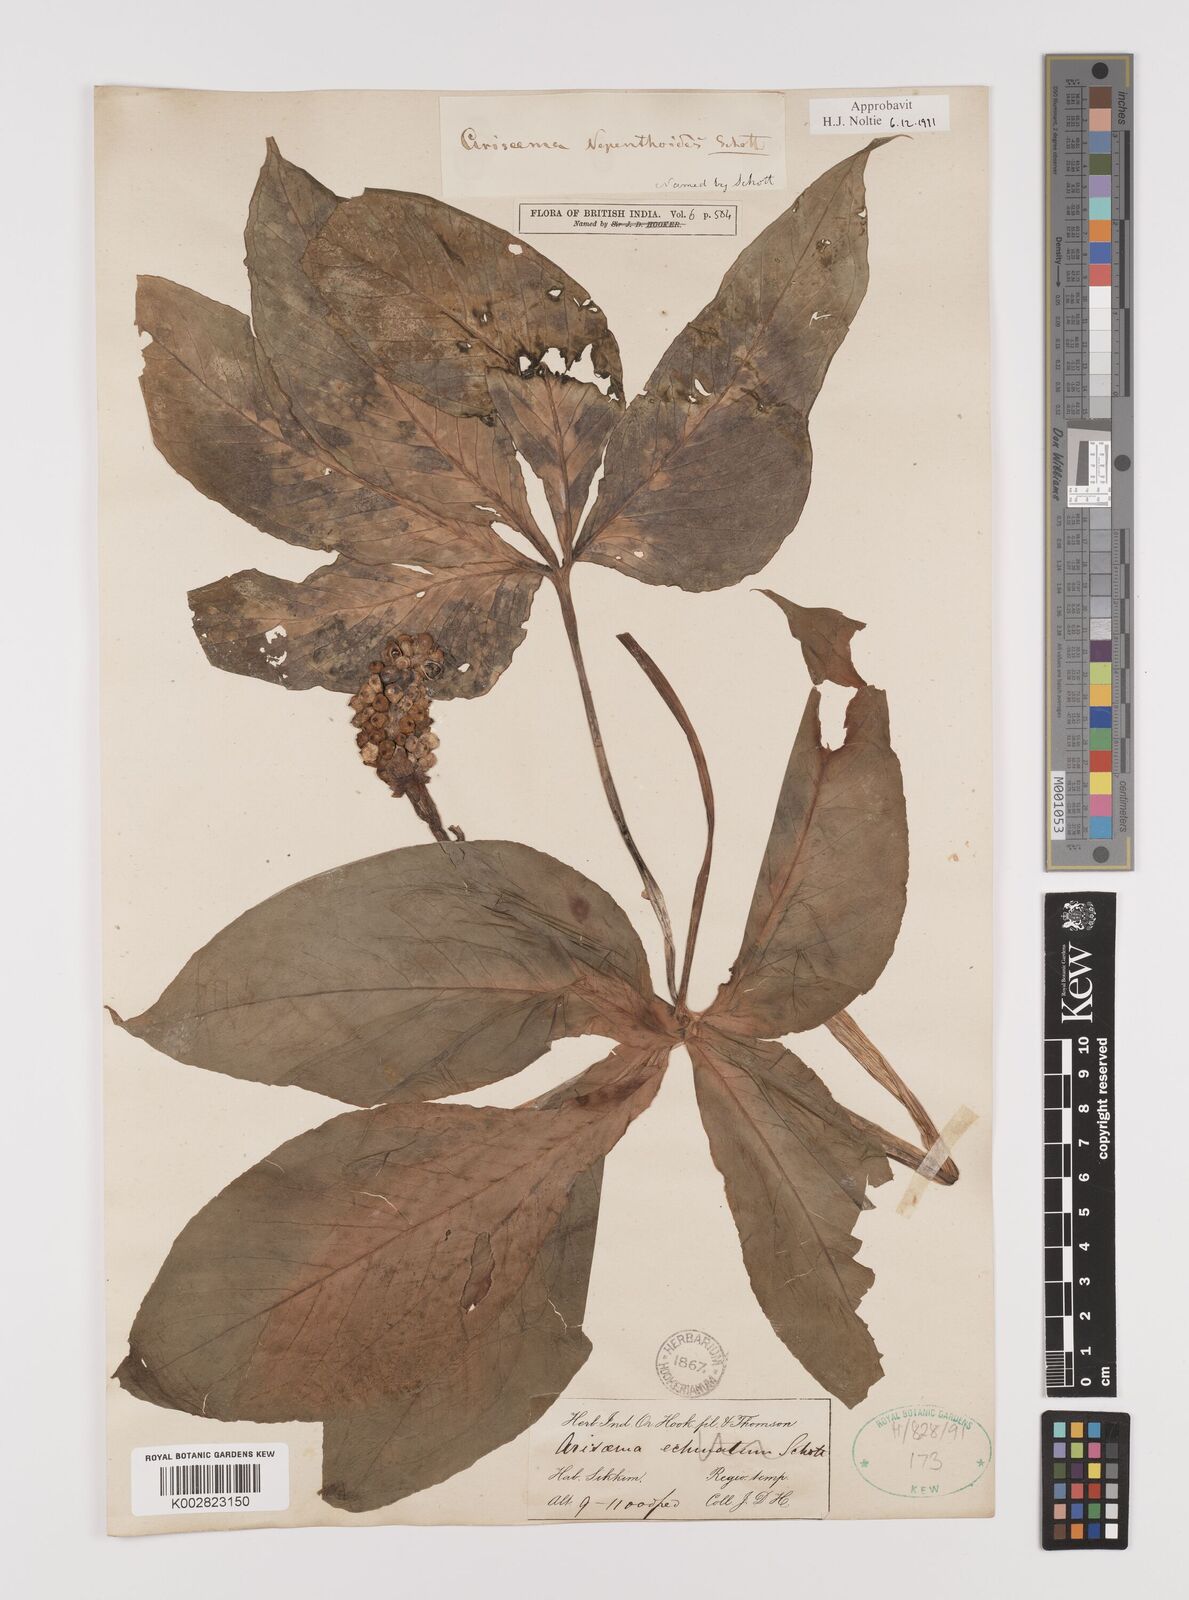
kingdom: Plantae
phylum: Tracheophyta
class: Liliopsida
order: Alismatales
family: Araceae
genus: Arisaema
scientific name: Arisaema nepenthoides
